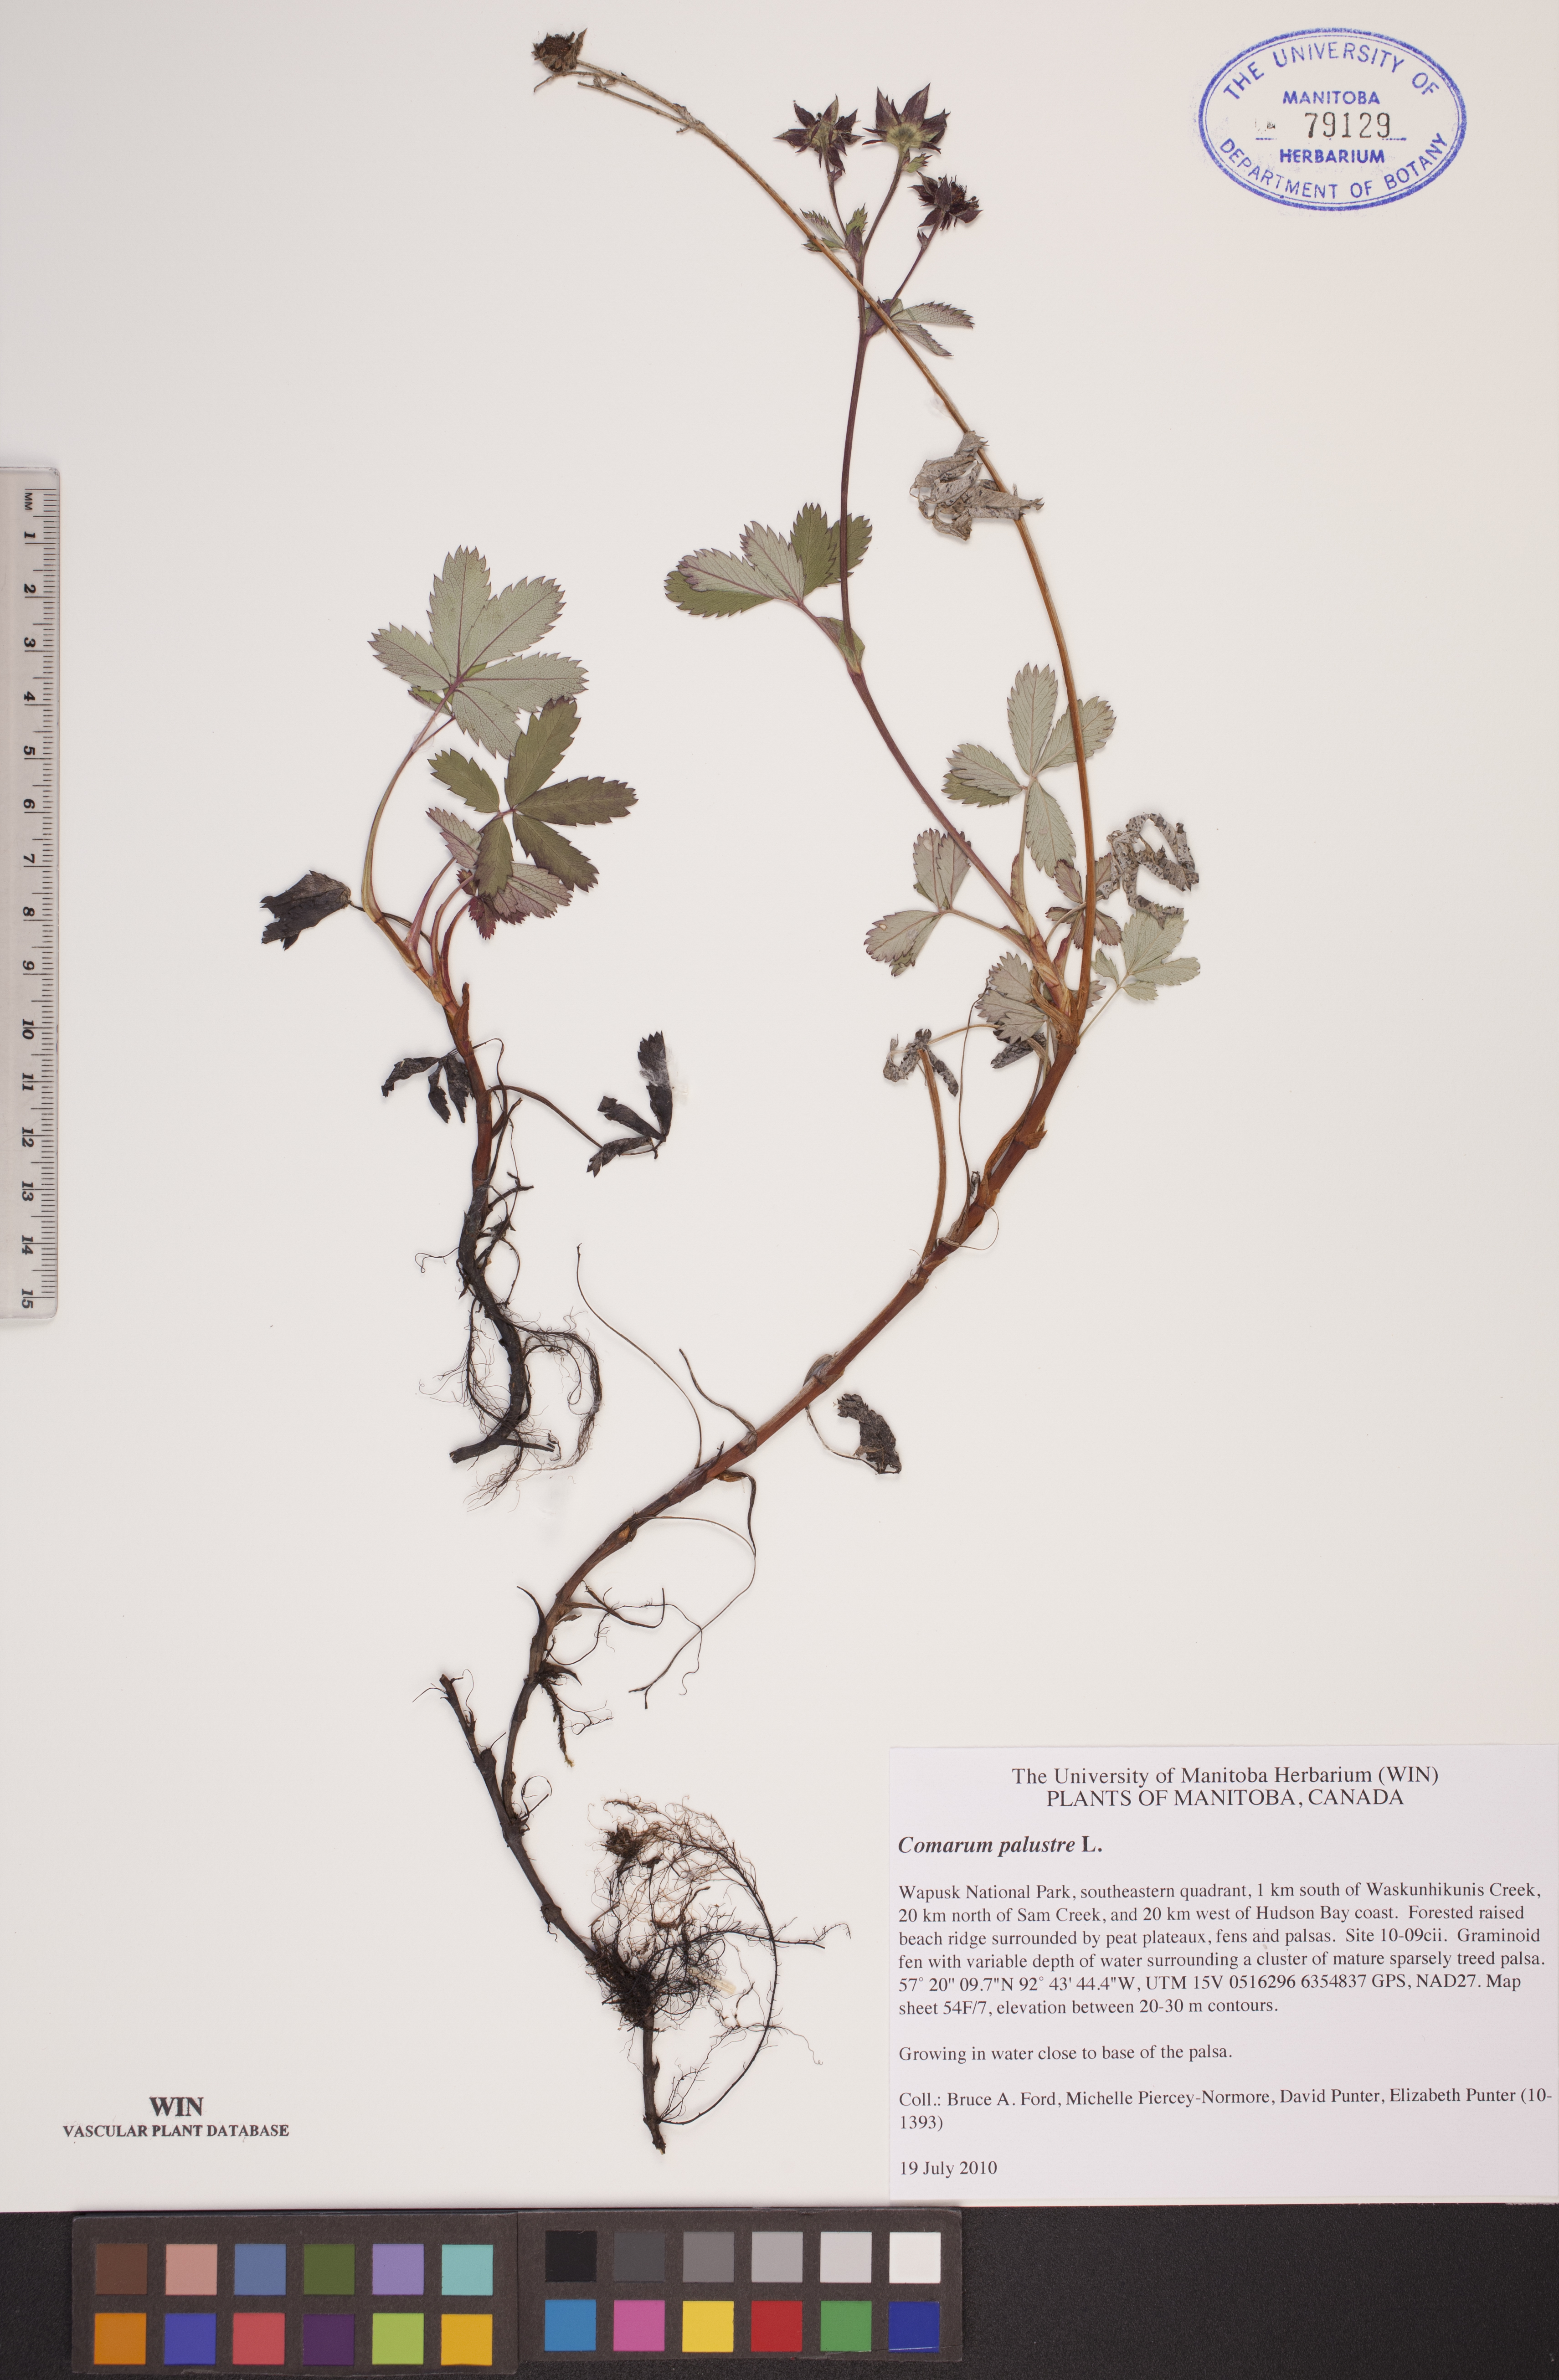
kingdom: Plantae
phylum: Tracheophyta
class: Magnoliopsida
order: Rosales
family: Rosaceae
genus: Comarum
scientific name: Comarum palustre
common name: Marsh cinquefoil
